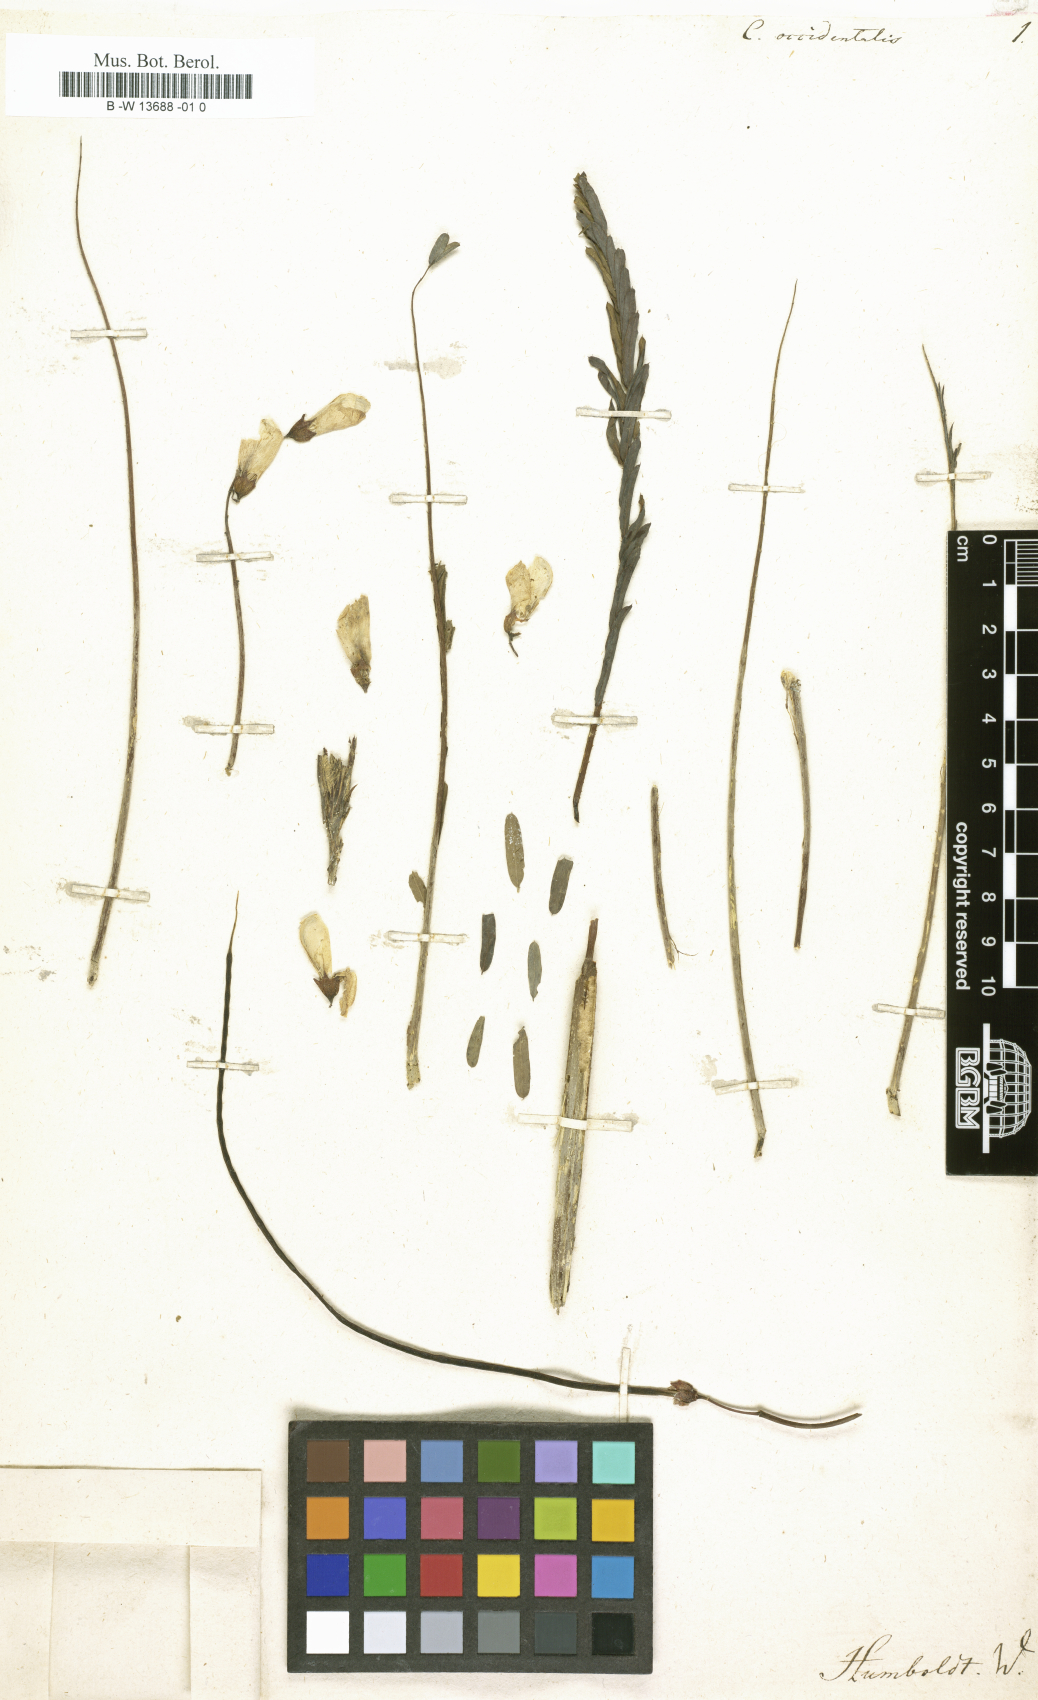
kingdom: Plantae
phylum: Tracheophyta
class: Magnoliopsida
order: Fabales
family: Fabaceae
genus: Sesbania
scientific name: Sesbania herbacea
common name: Bigpod sesbania
